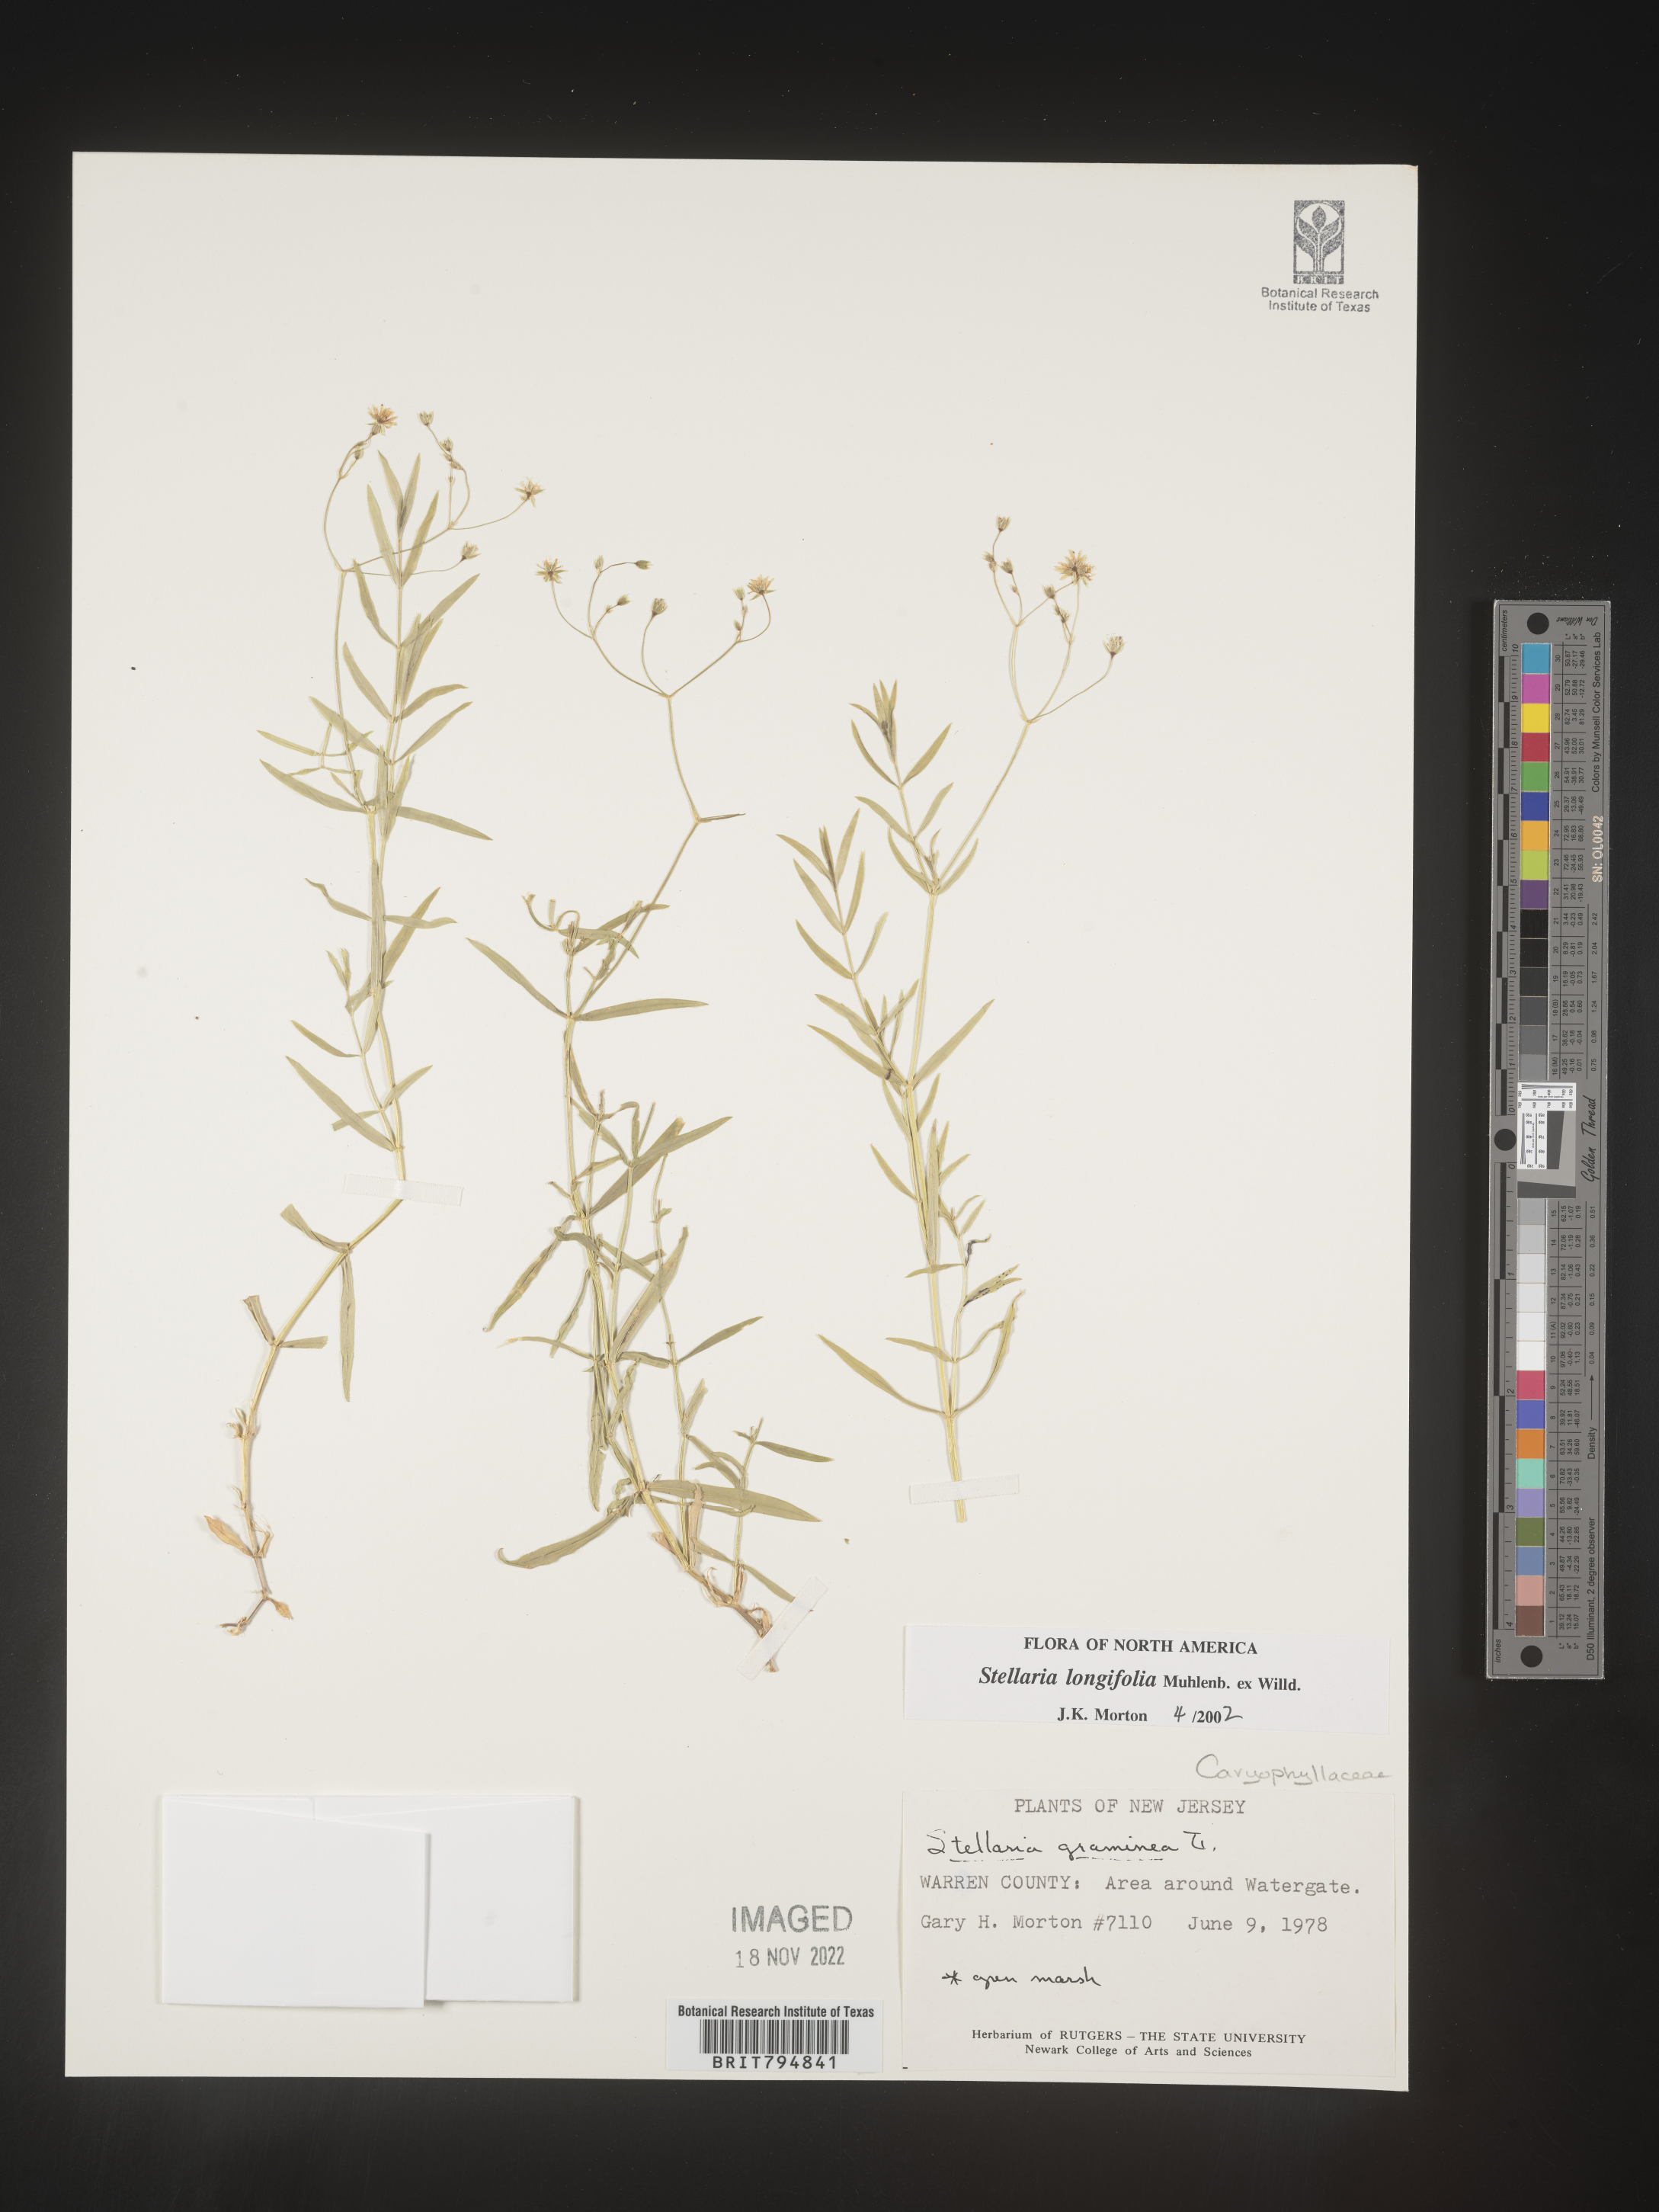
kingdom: Plantae
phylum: Tracheophyta
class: Magnoliopsida
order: Caryophyllales
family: Caryophyllaceae
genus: Stellaria
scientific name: Stellaria longifolia
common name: Long-leaved chickweed
